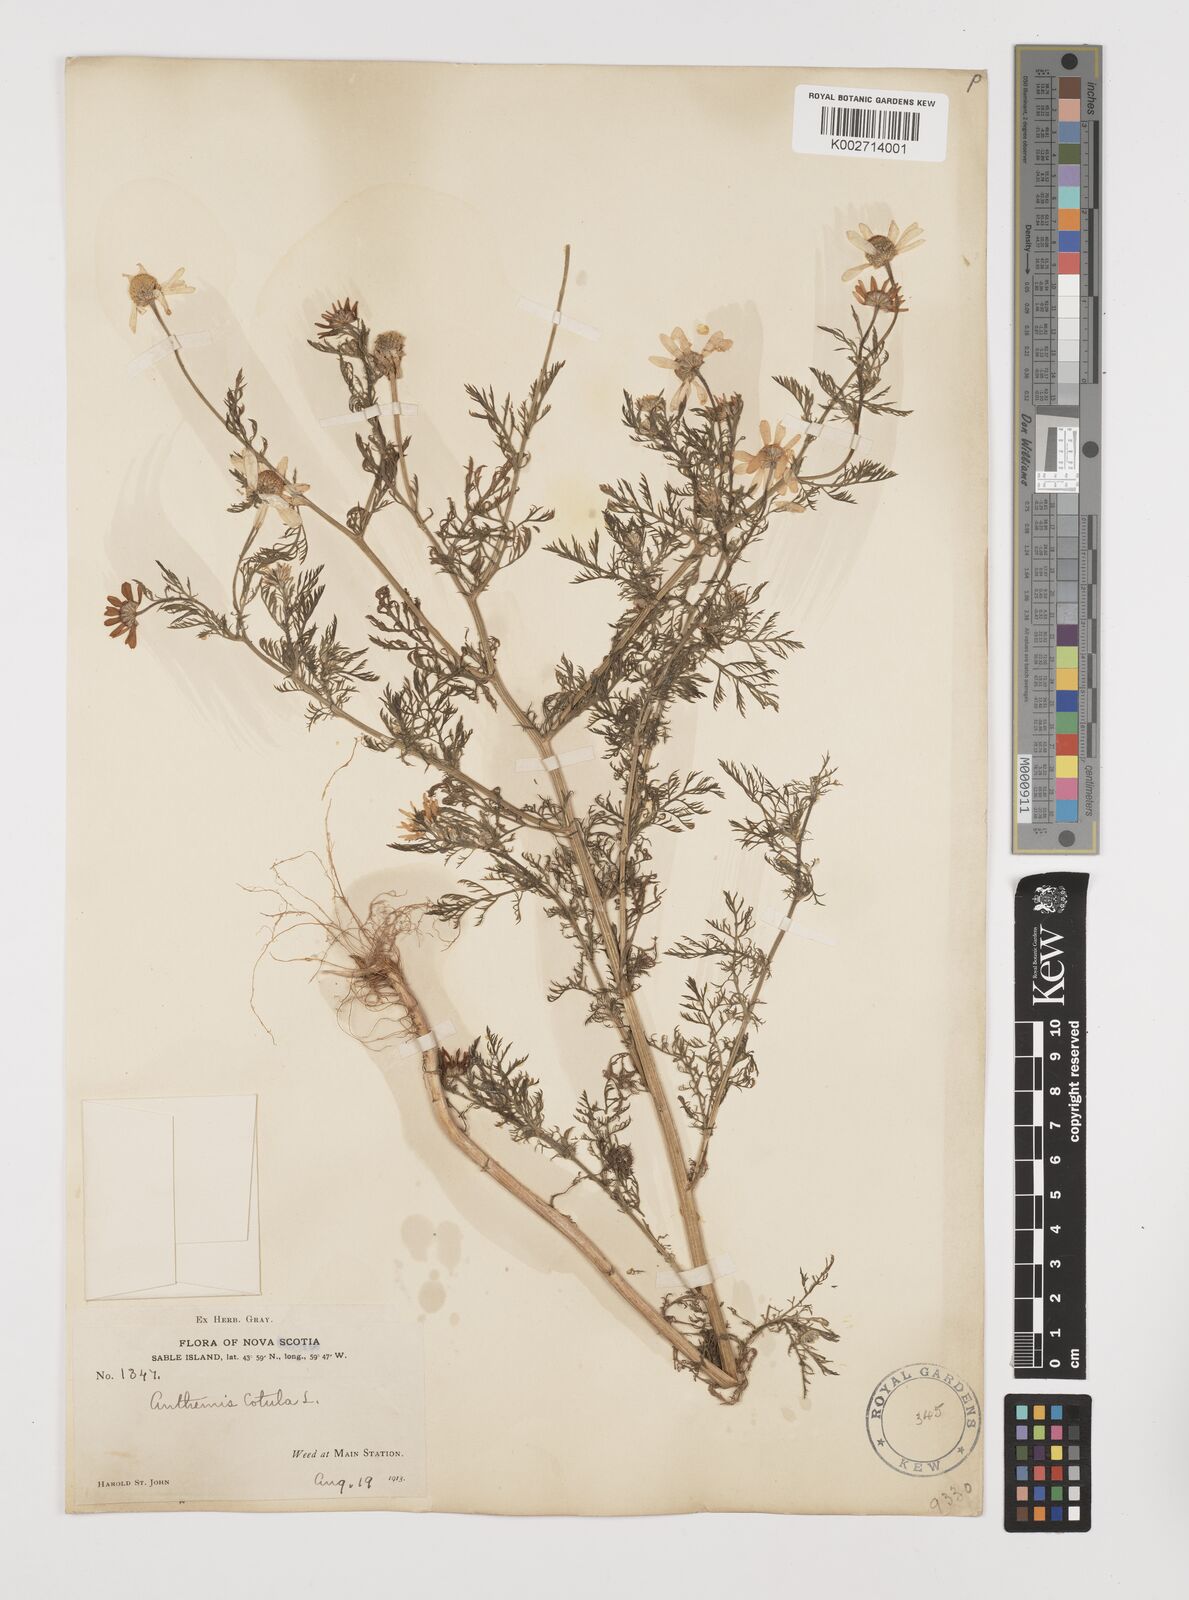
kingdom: Plantae
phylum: Tracheophyta
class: Magnoliopsida
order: Asterales
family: Asteraceae
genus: Anthemis
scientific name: Anthemis cotula
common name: Stinking chamomile
